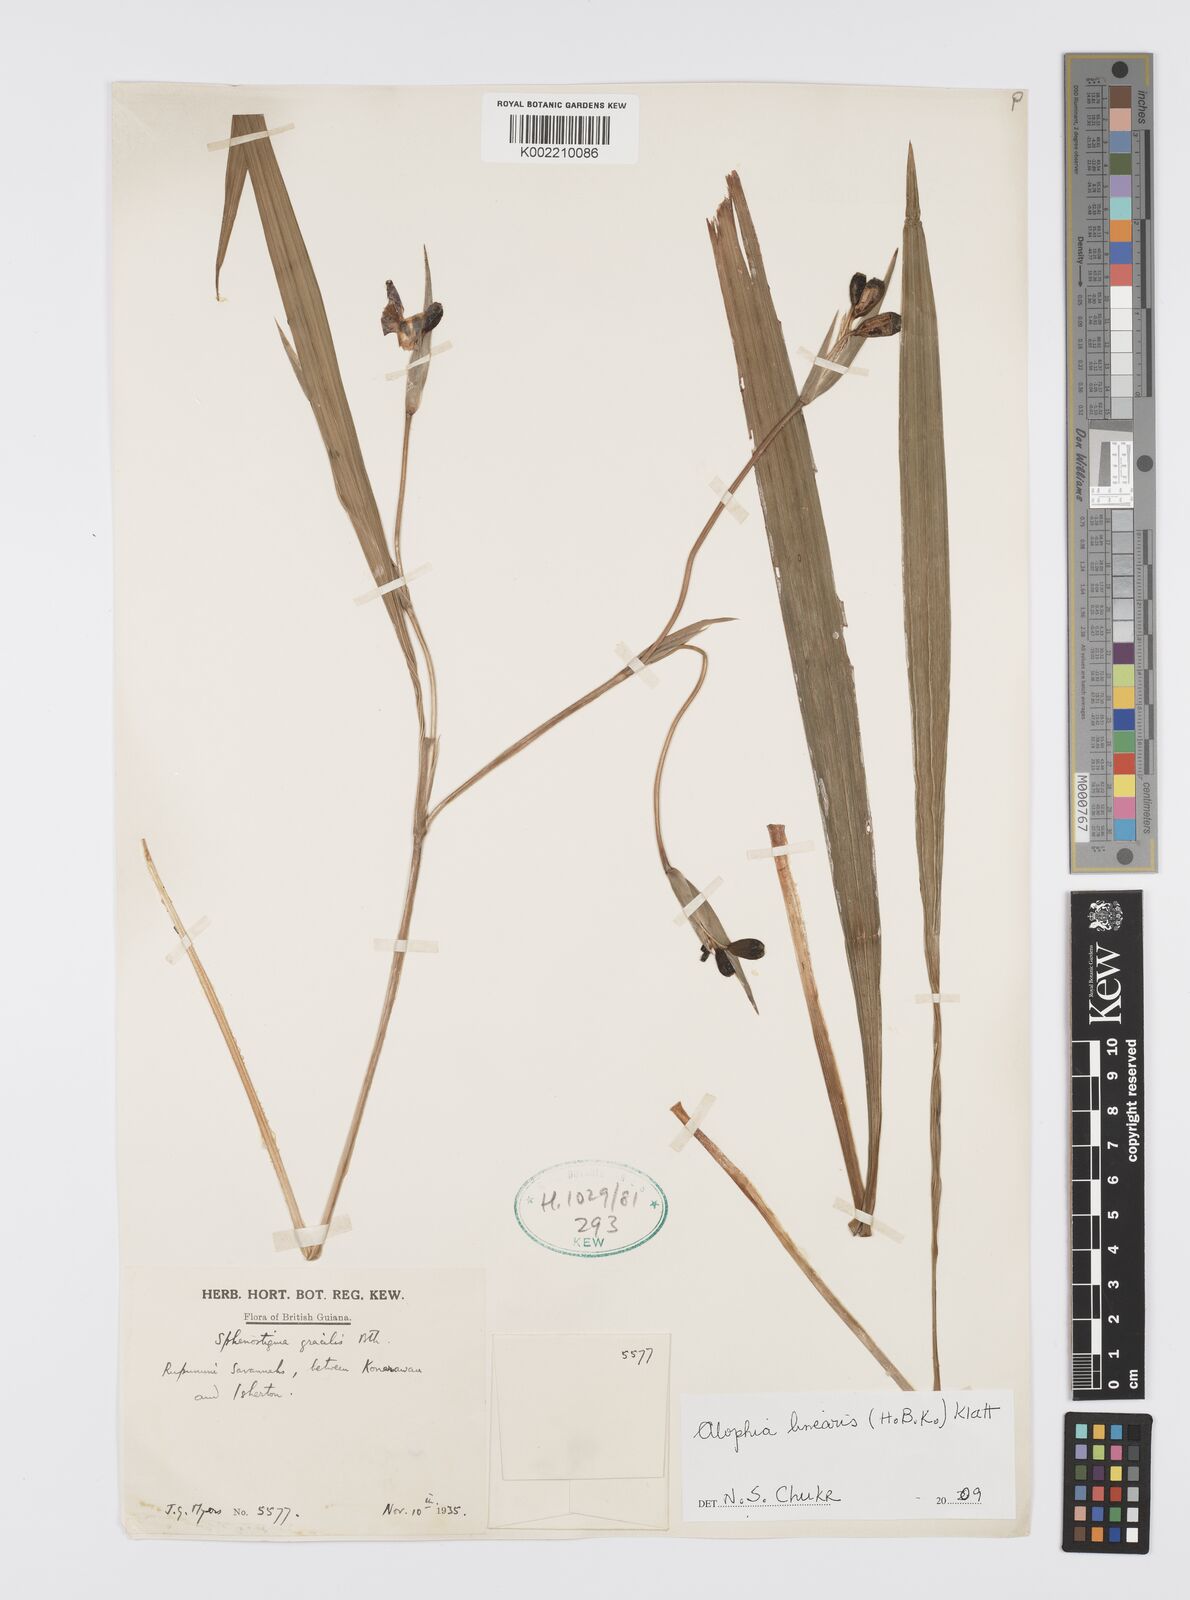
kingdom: Plantae
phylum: Tracheophyta
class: Liliopsida
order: Asparagales
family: Iridaceae
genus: Larentia
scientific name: Larentia linearis
